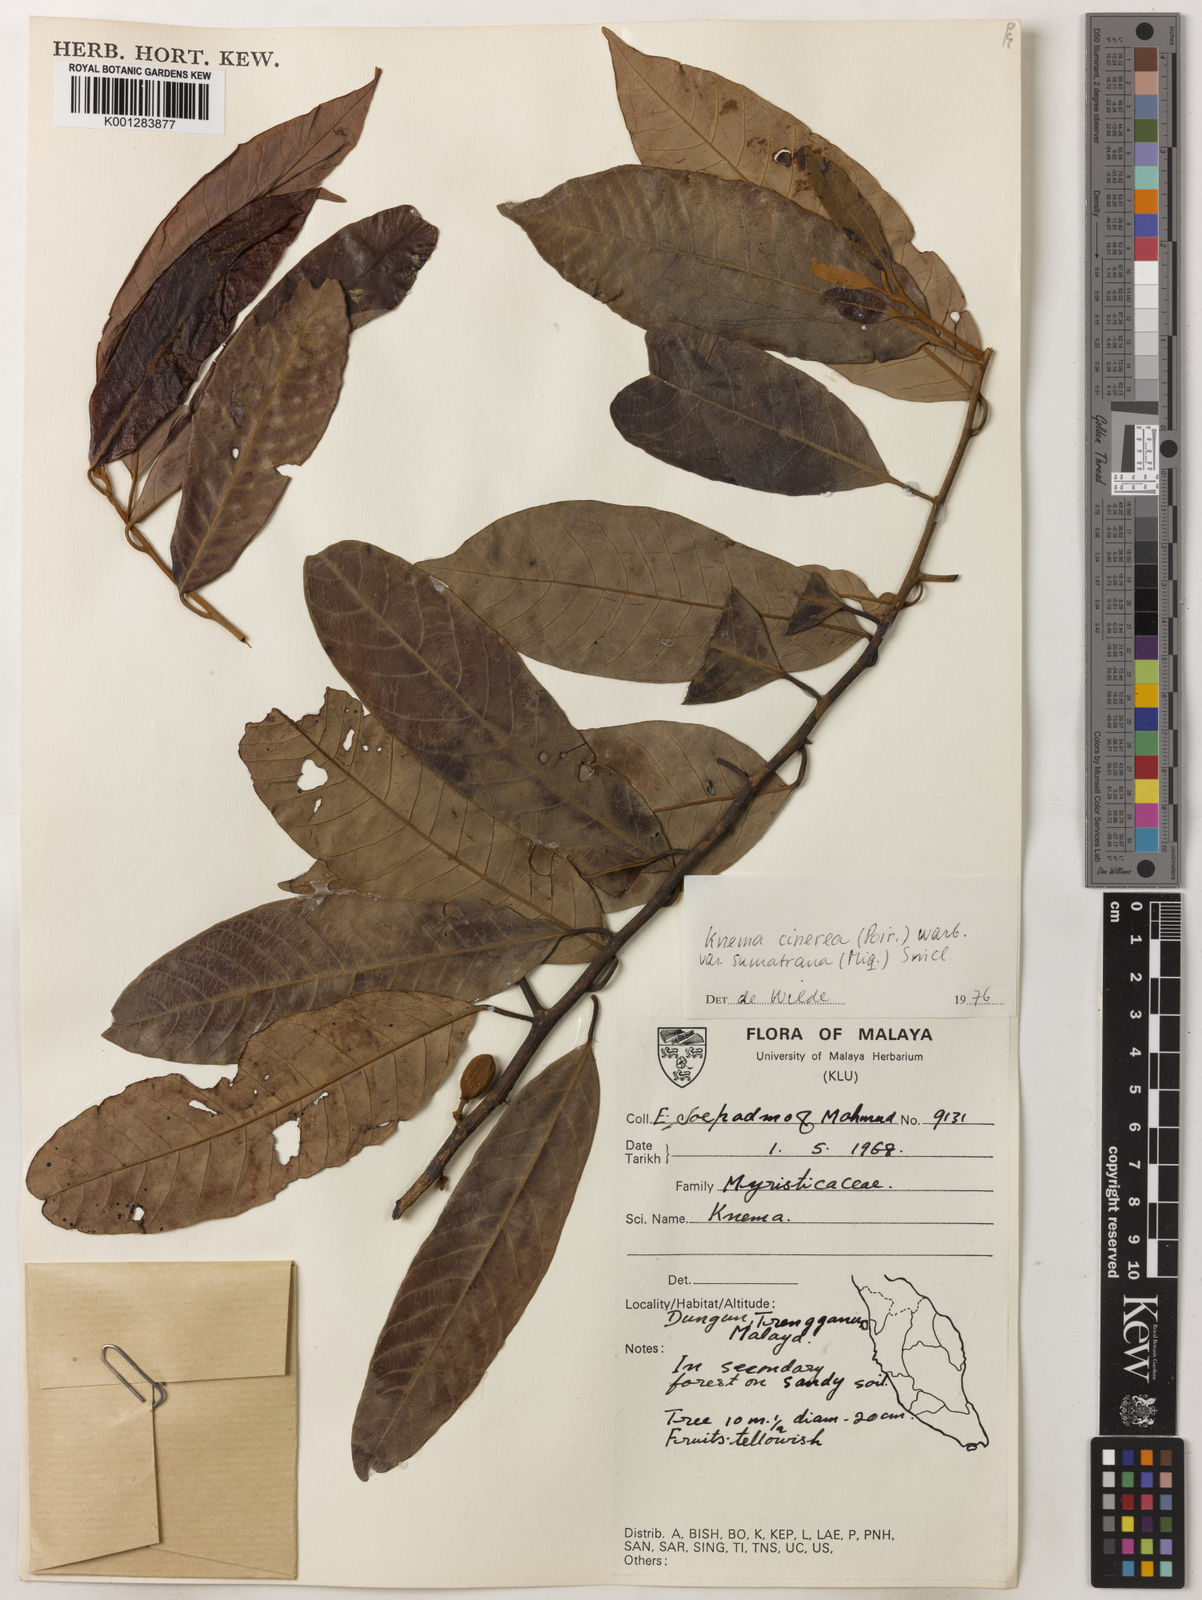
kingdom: Plantae
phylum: Tracheophyta
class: Magnoliopsida
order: Magnoliales
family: Myristicaceae
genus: Knema
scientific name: Knema
